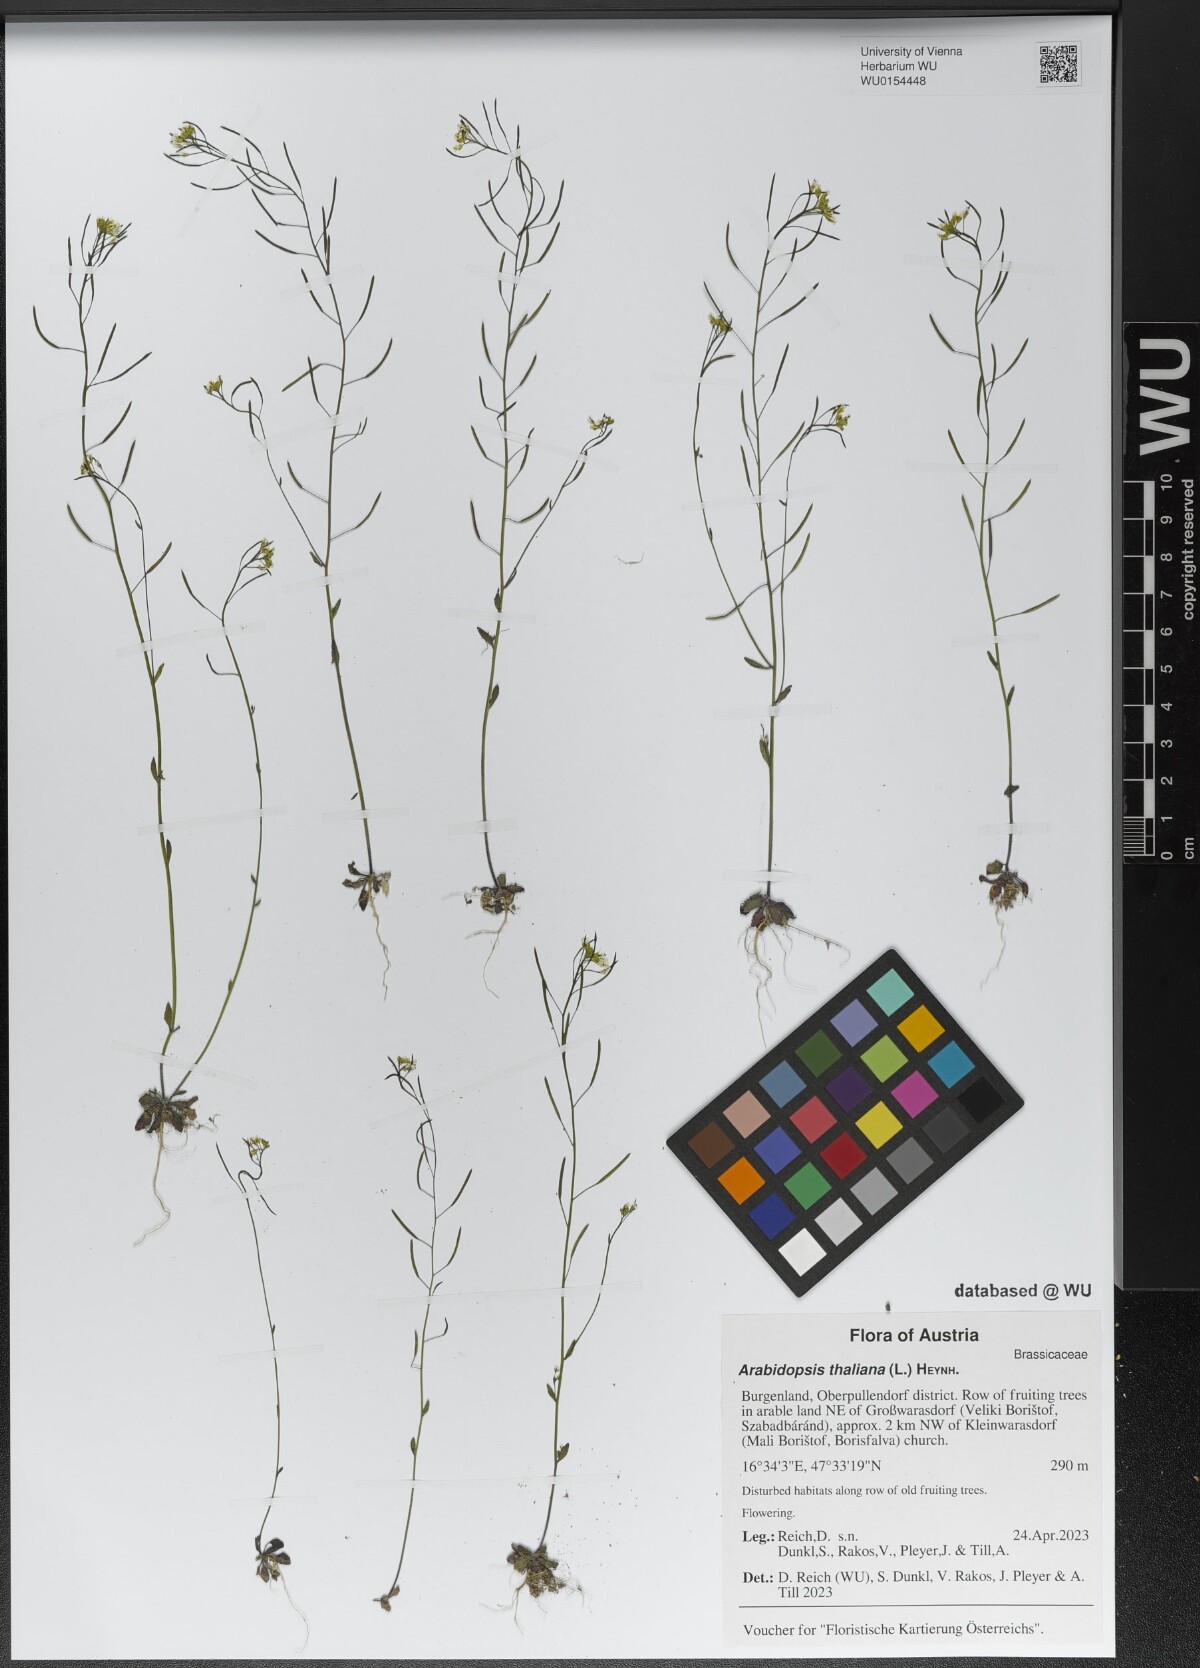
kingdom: Plantae
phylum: Tracheophyta
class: Magnoliopsida
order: Brassicales
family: Brassicaceae
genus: Arabidopsis
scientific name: Arabidopsis thaliana
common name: Thale cress
